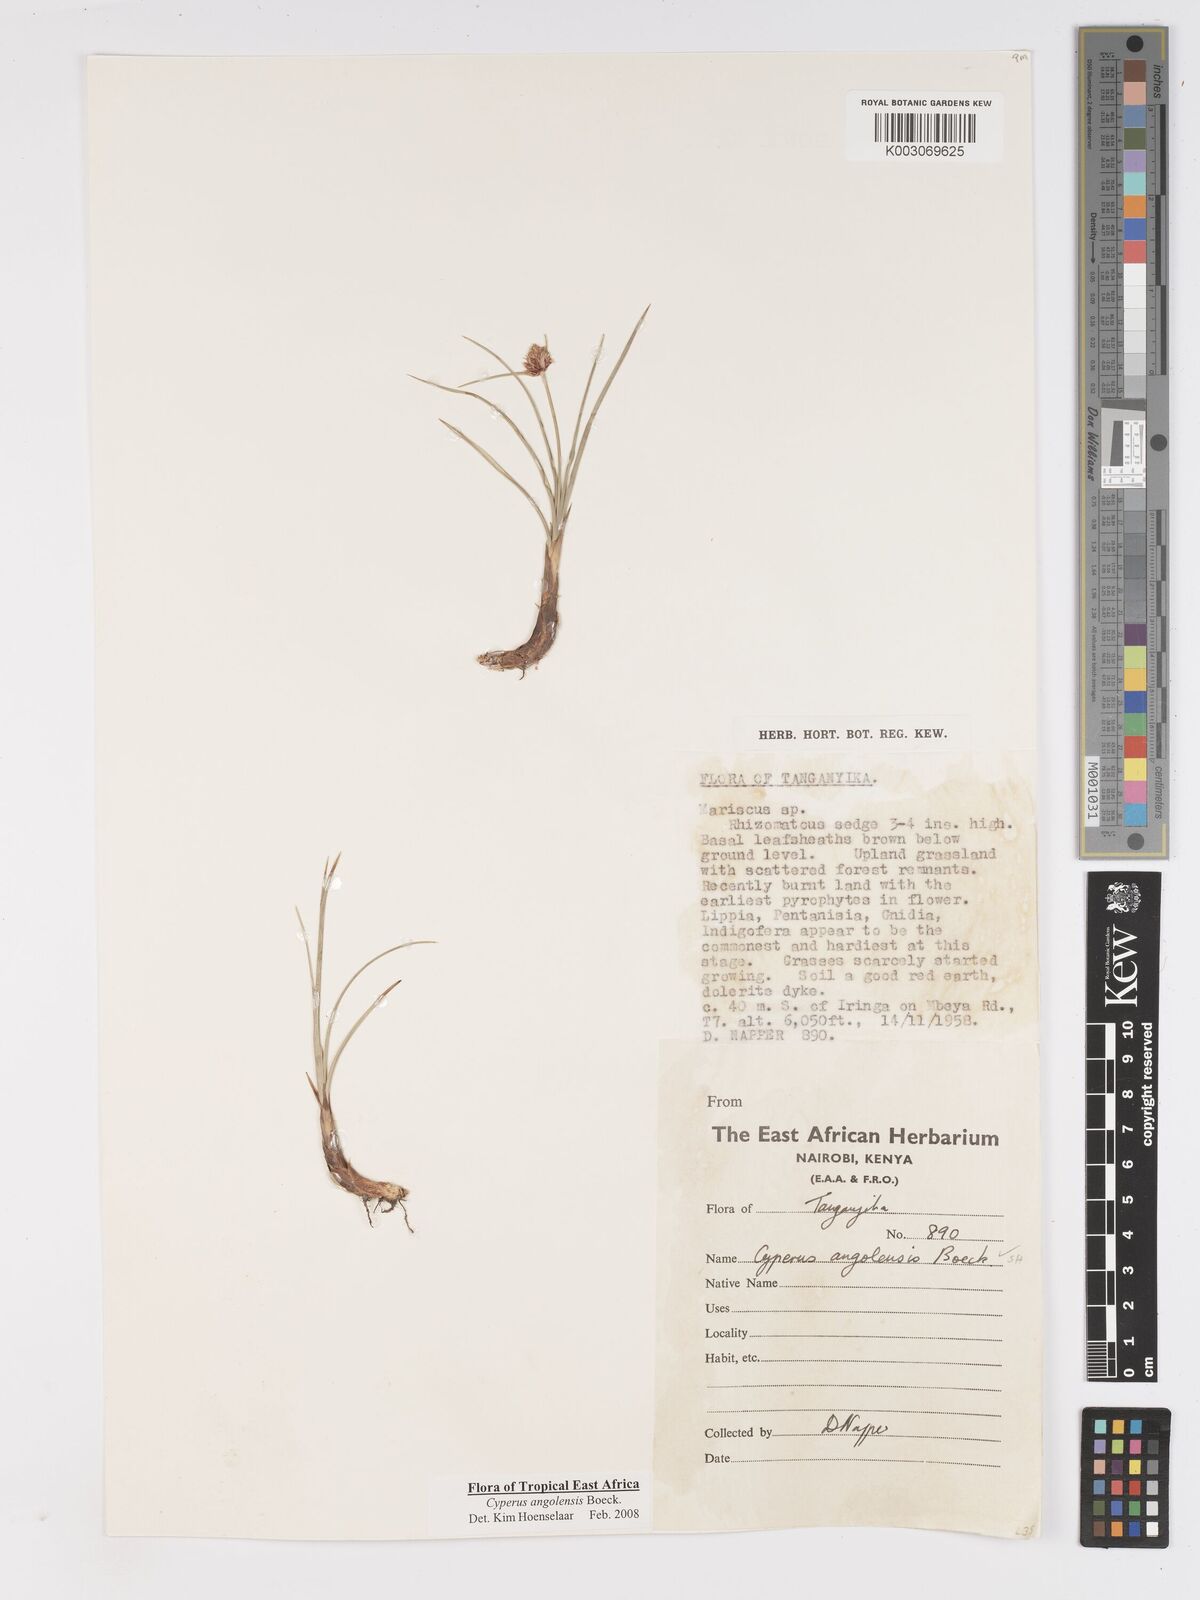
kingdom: Plantae
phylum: Tracheophyta
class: Liliopsida
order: Poales
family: Cyperaceae
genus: Cyperus
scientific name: Cyperus angolensis
